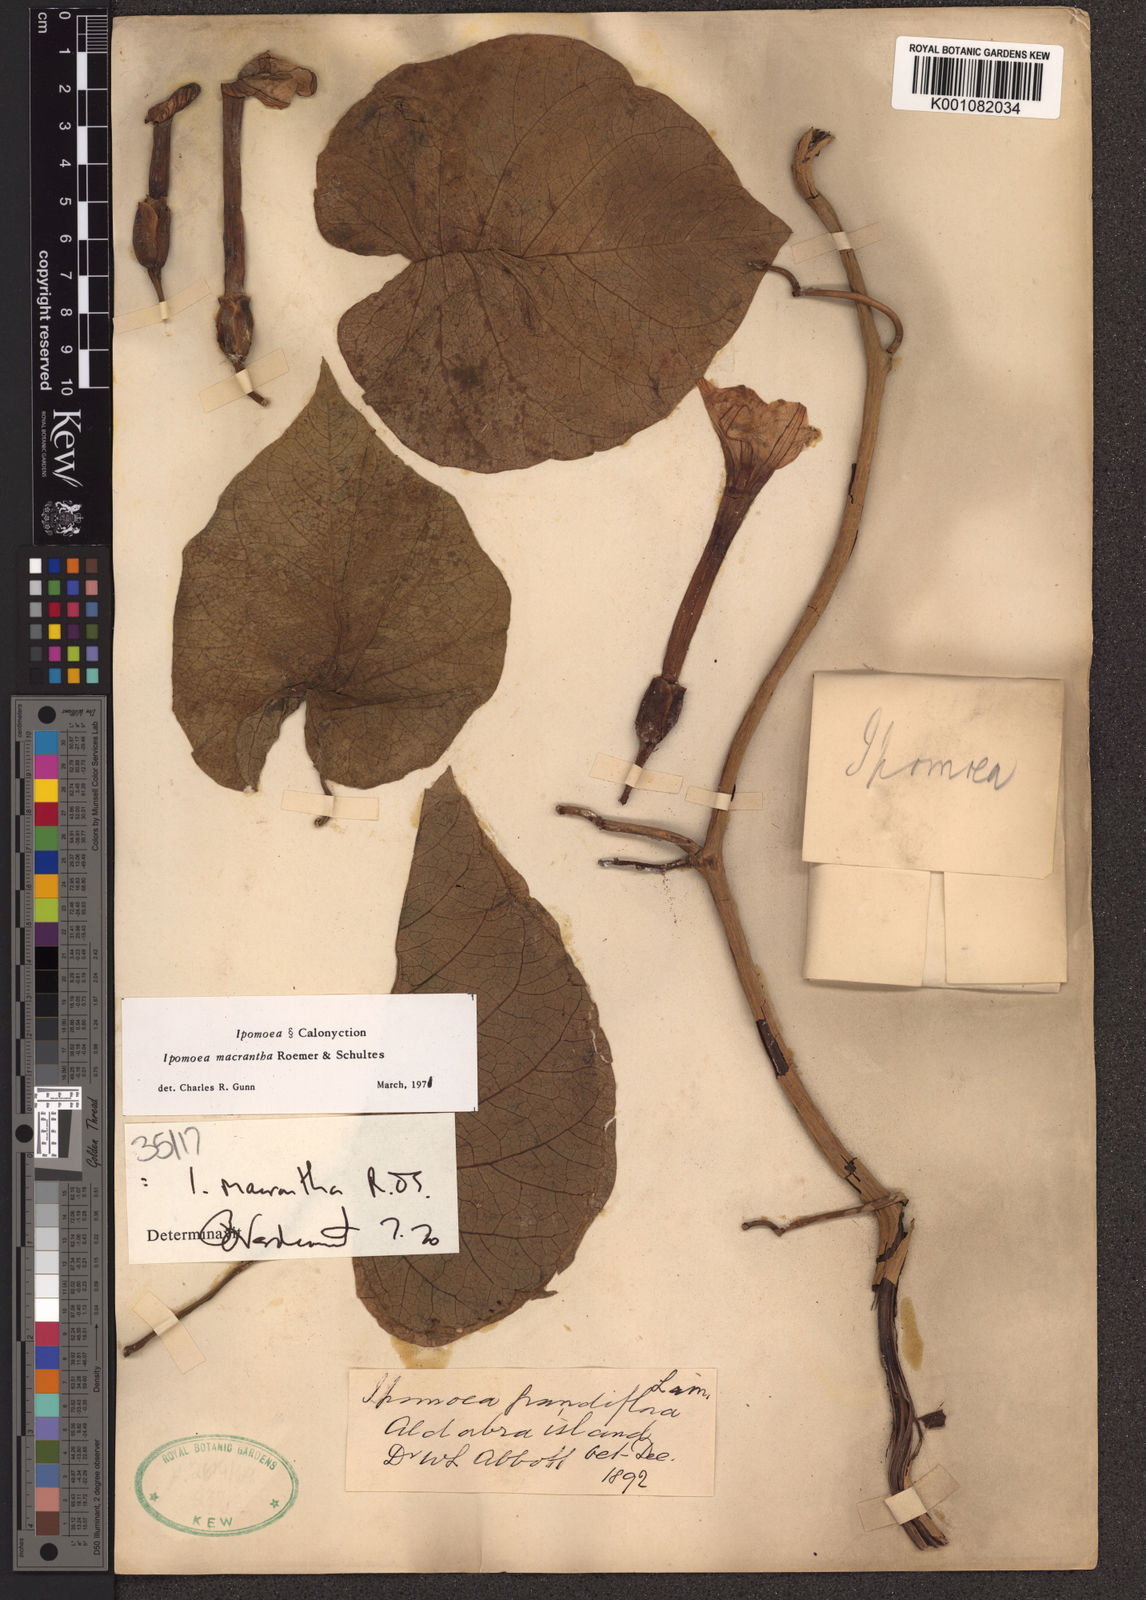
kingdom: Plantae
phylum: Tracheophyta
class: Magnoliopsida
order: Solanales
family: Convolvulaceae
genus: Ipomoea
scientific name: Ipomoea violacea
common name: Beach moonflower
